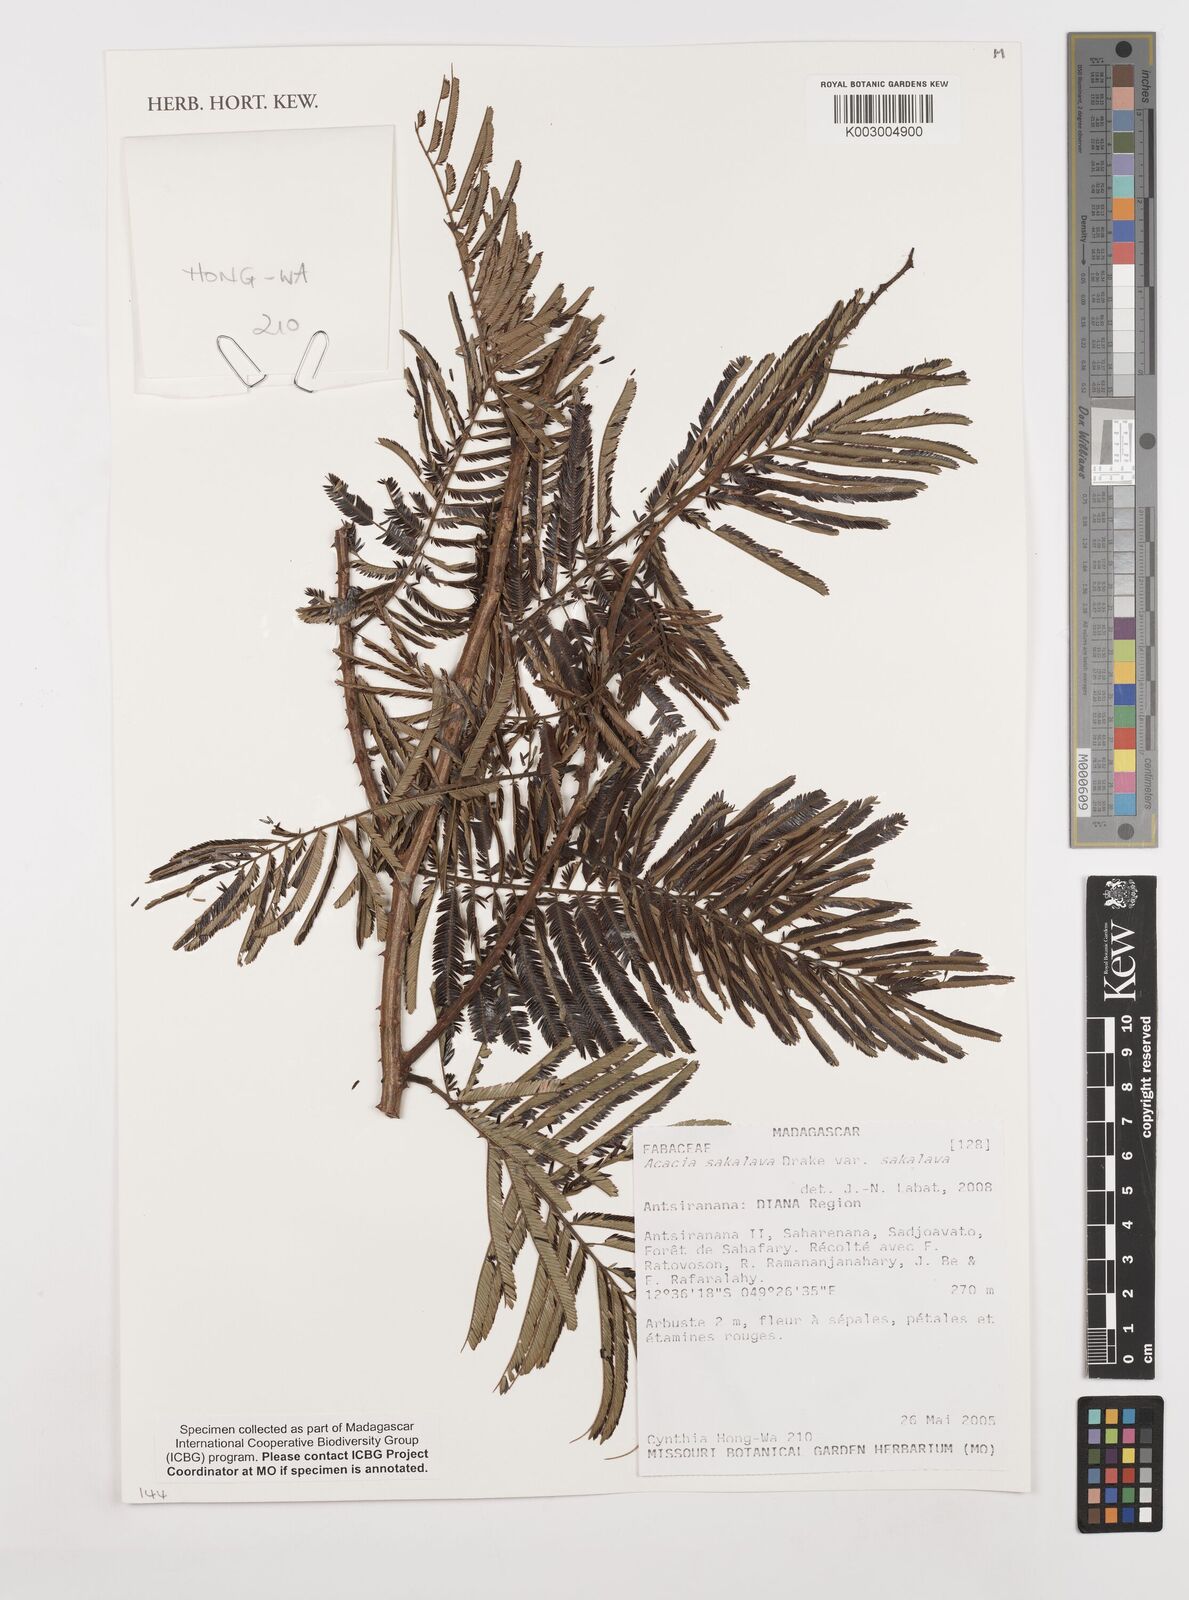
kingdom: Plantae
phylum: Tracheophyta
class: Magnoliopsida
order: Fabales
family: Fabaceae
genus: Senegalia
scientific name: Senegalia sakalava
